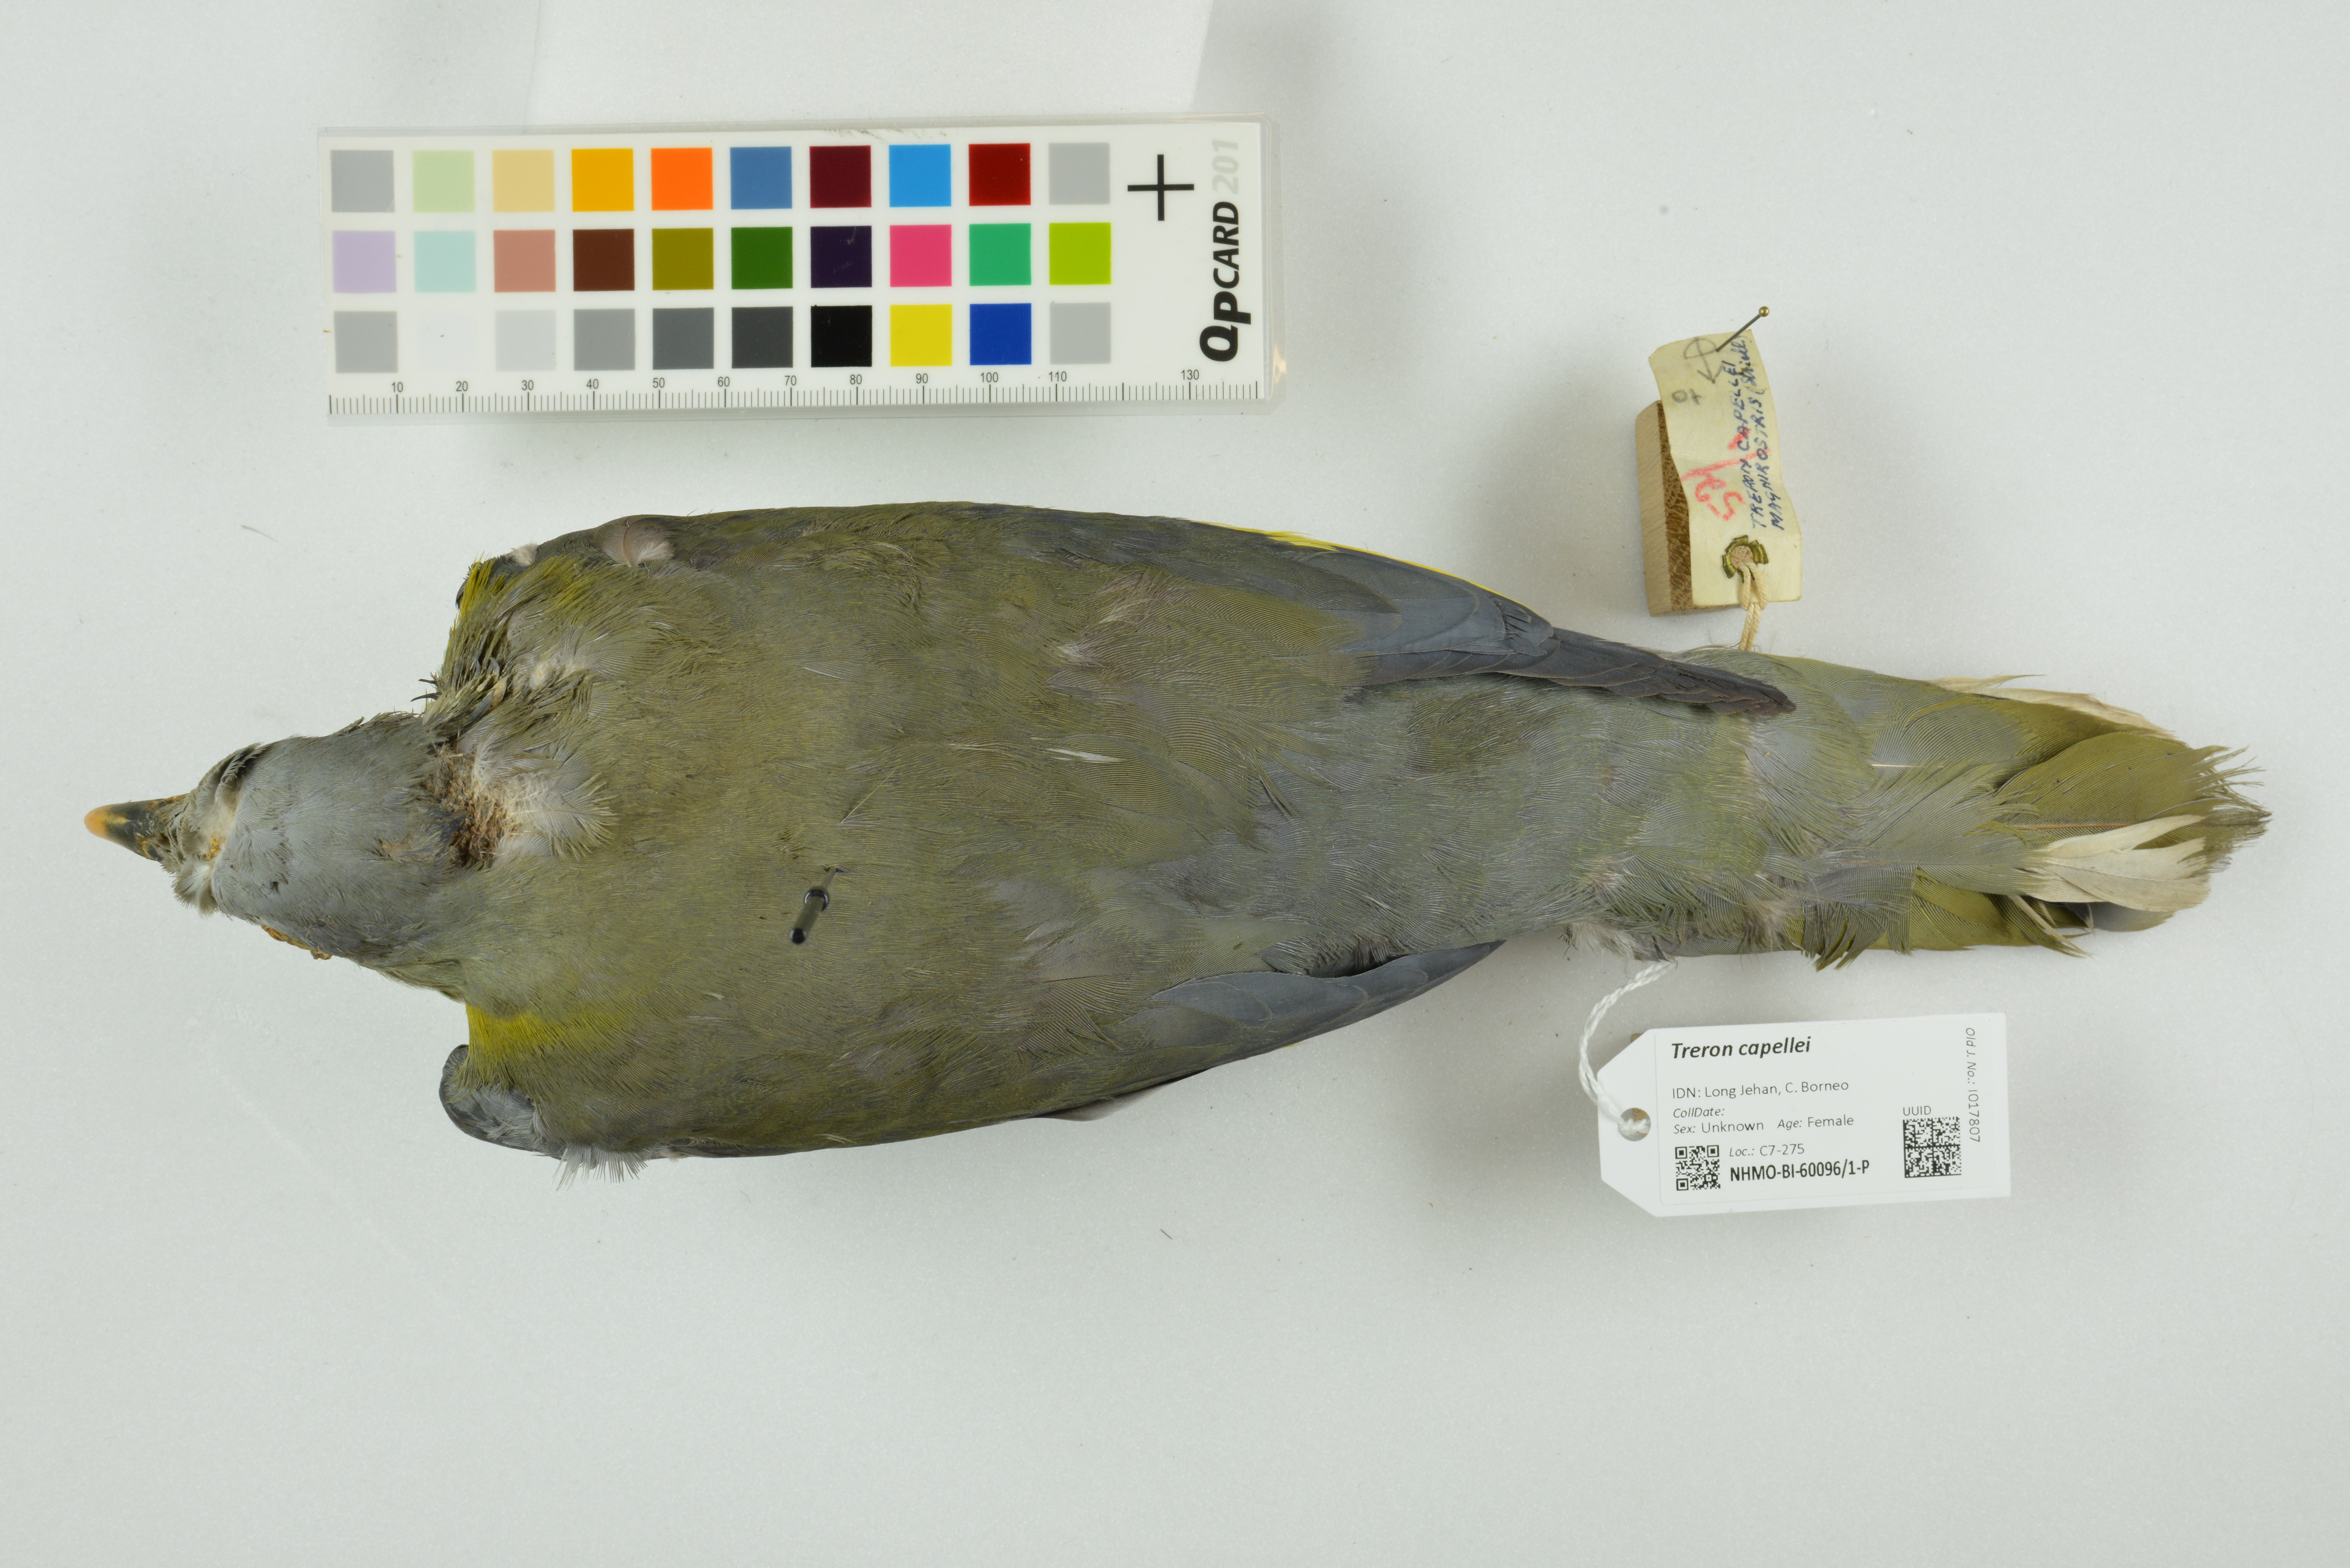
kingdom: Animalia
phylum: Chordata
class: Aves
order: Columbiformes
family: Columbidae
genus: Treron
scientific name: Treron capellei
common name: Large green pigeon
